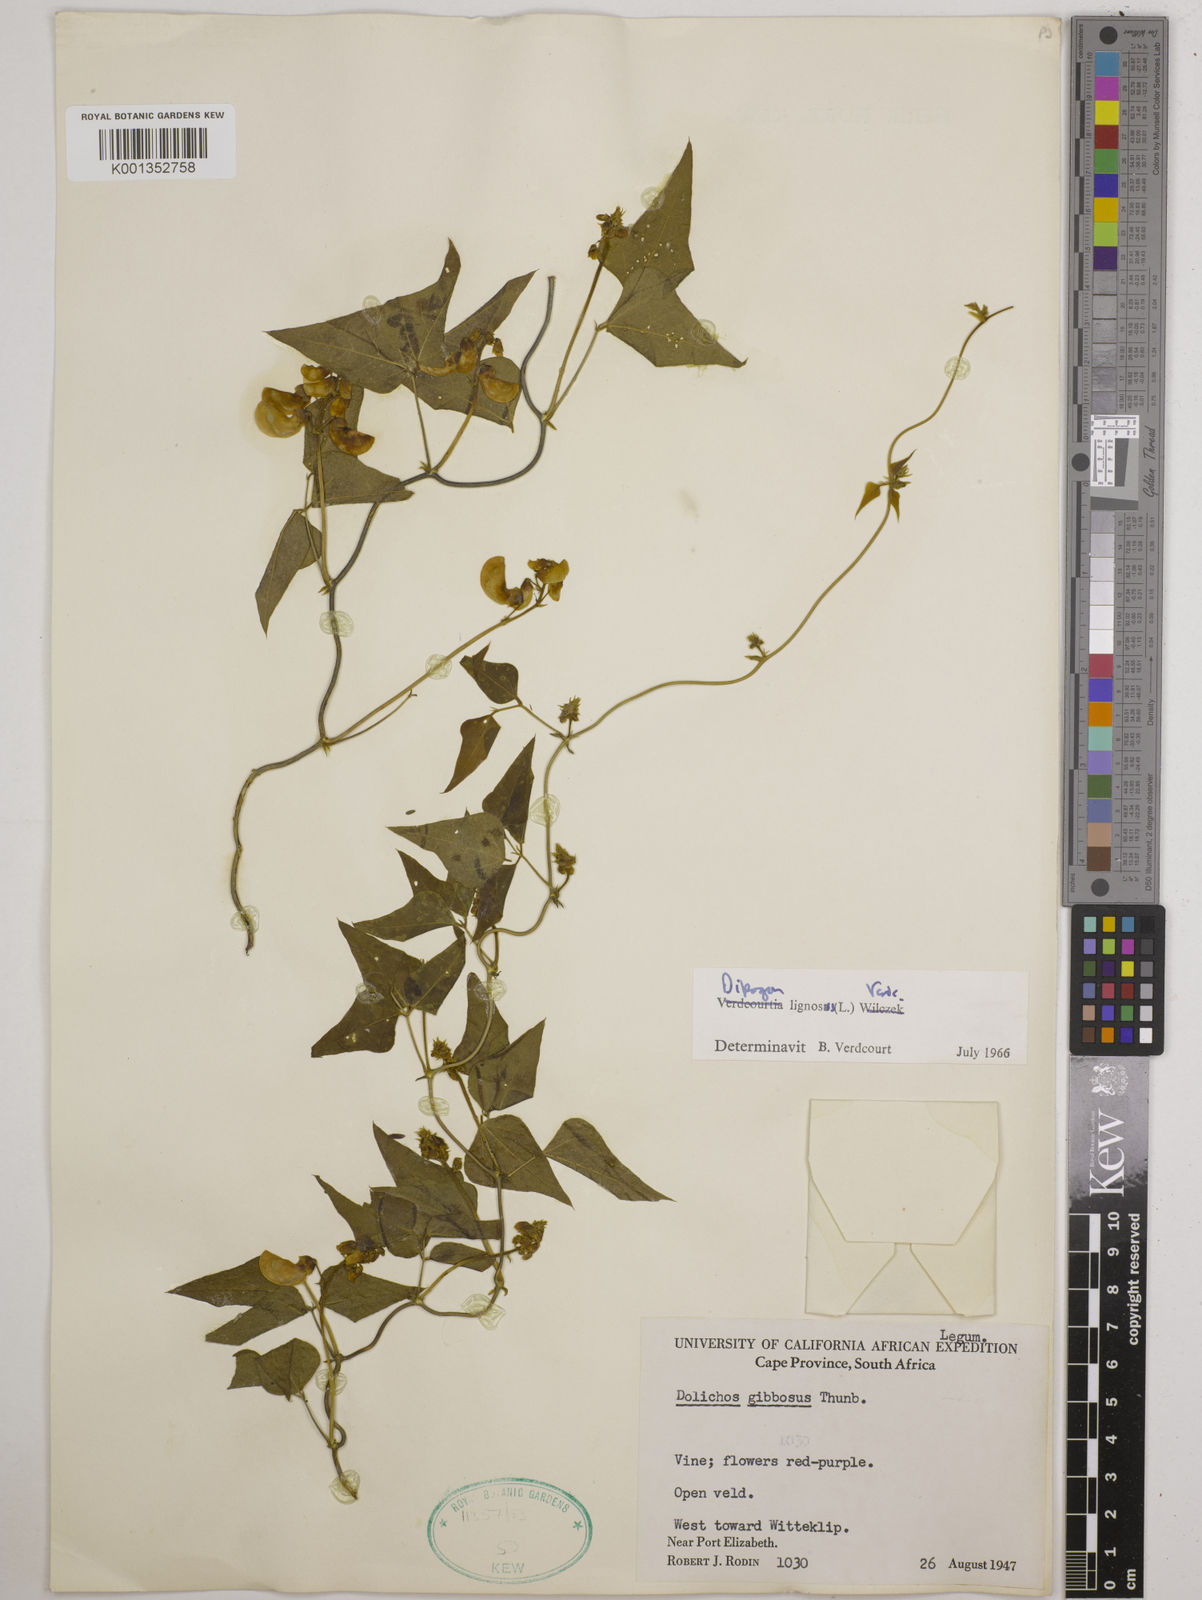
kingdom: Plantae
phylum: Tracheophyta
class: Magnoliopsida
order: Fabales
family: Fabaceae
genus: Dipogon
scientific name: Dipogon lignosus
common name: Okie bean
